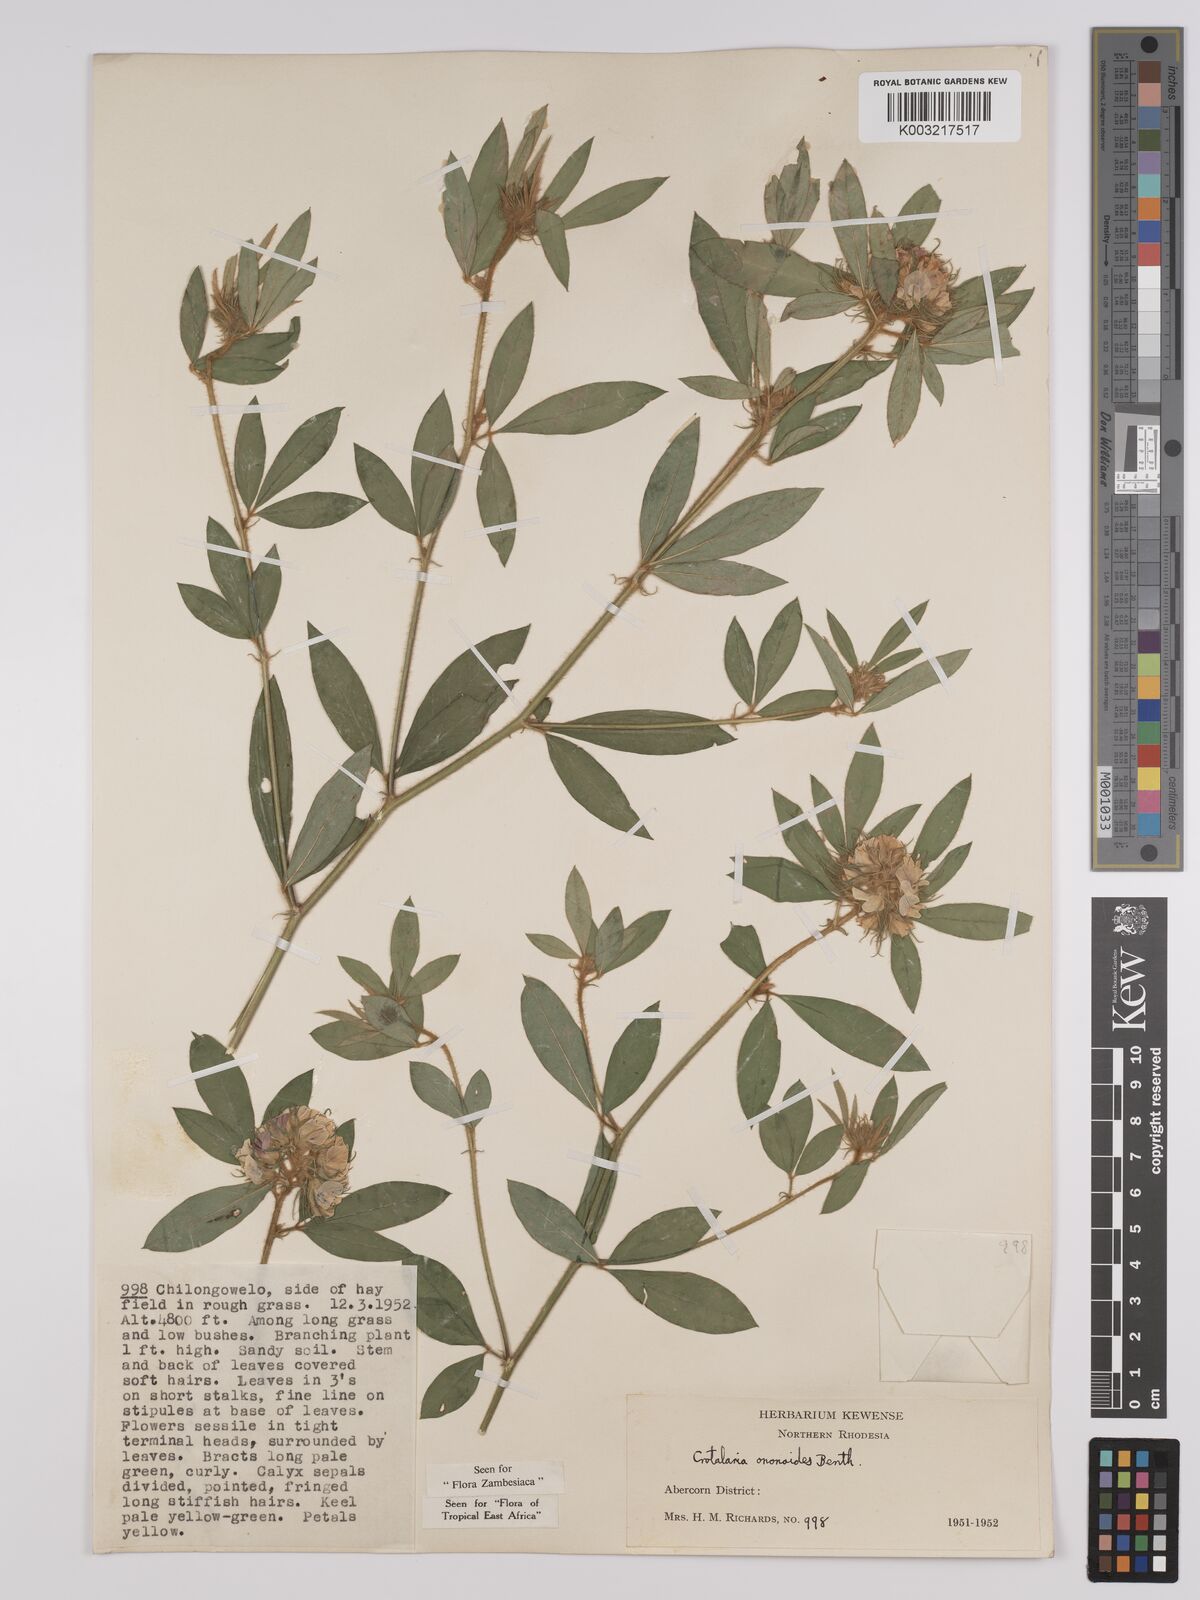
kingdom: Plantae
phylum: Tracheophyta
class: Magnoliopsida
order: Fabales
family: Fabaceae
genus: Crotalaria
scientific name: Crotalaria ononoides
